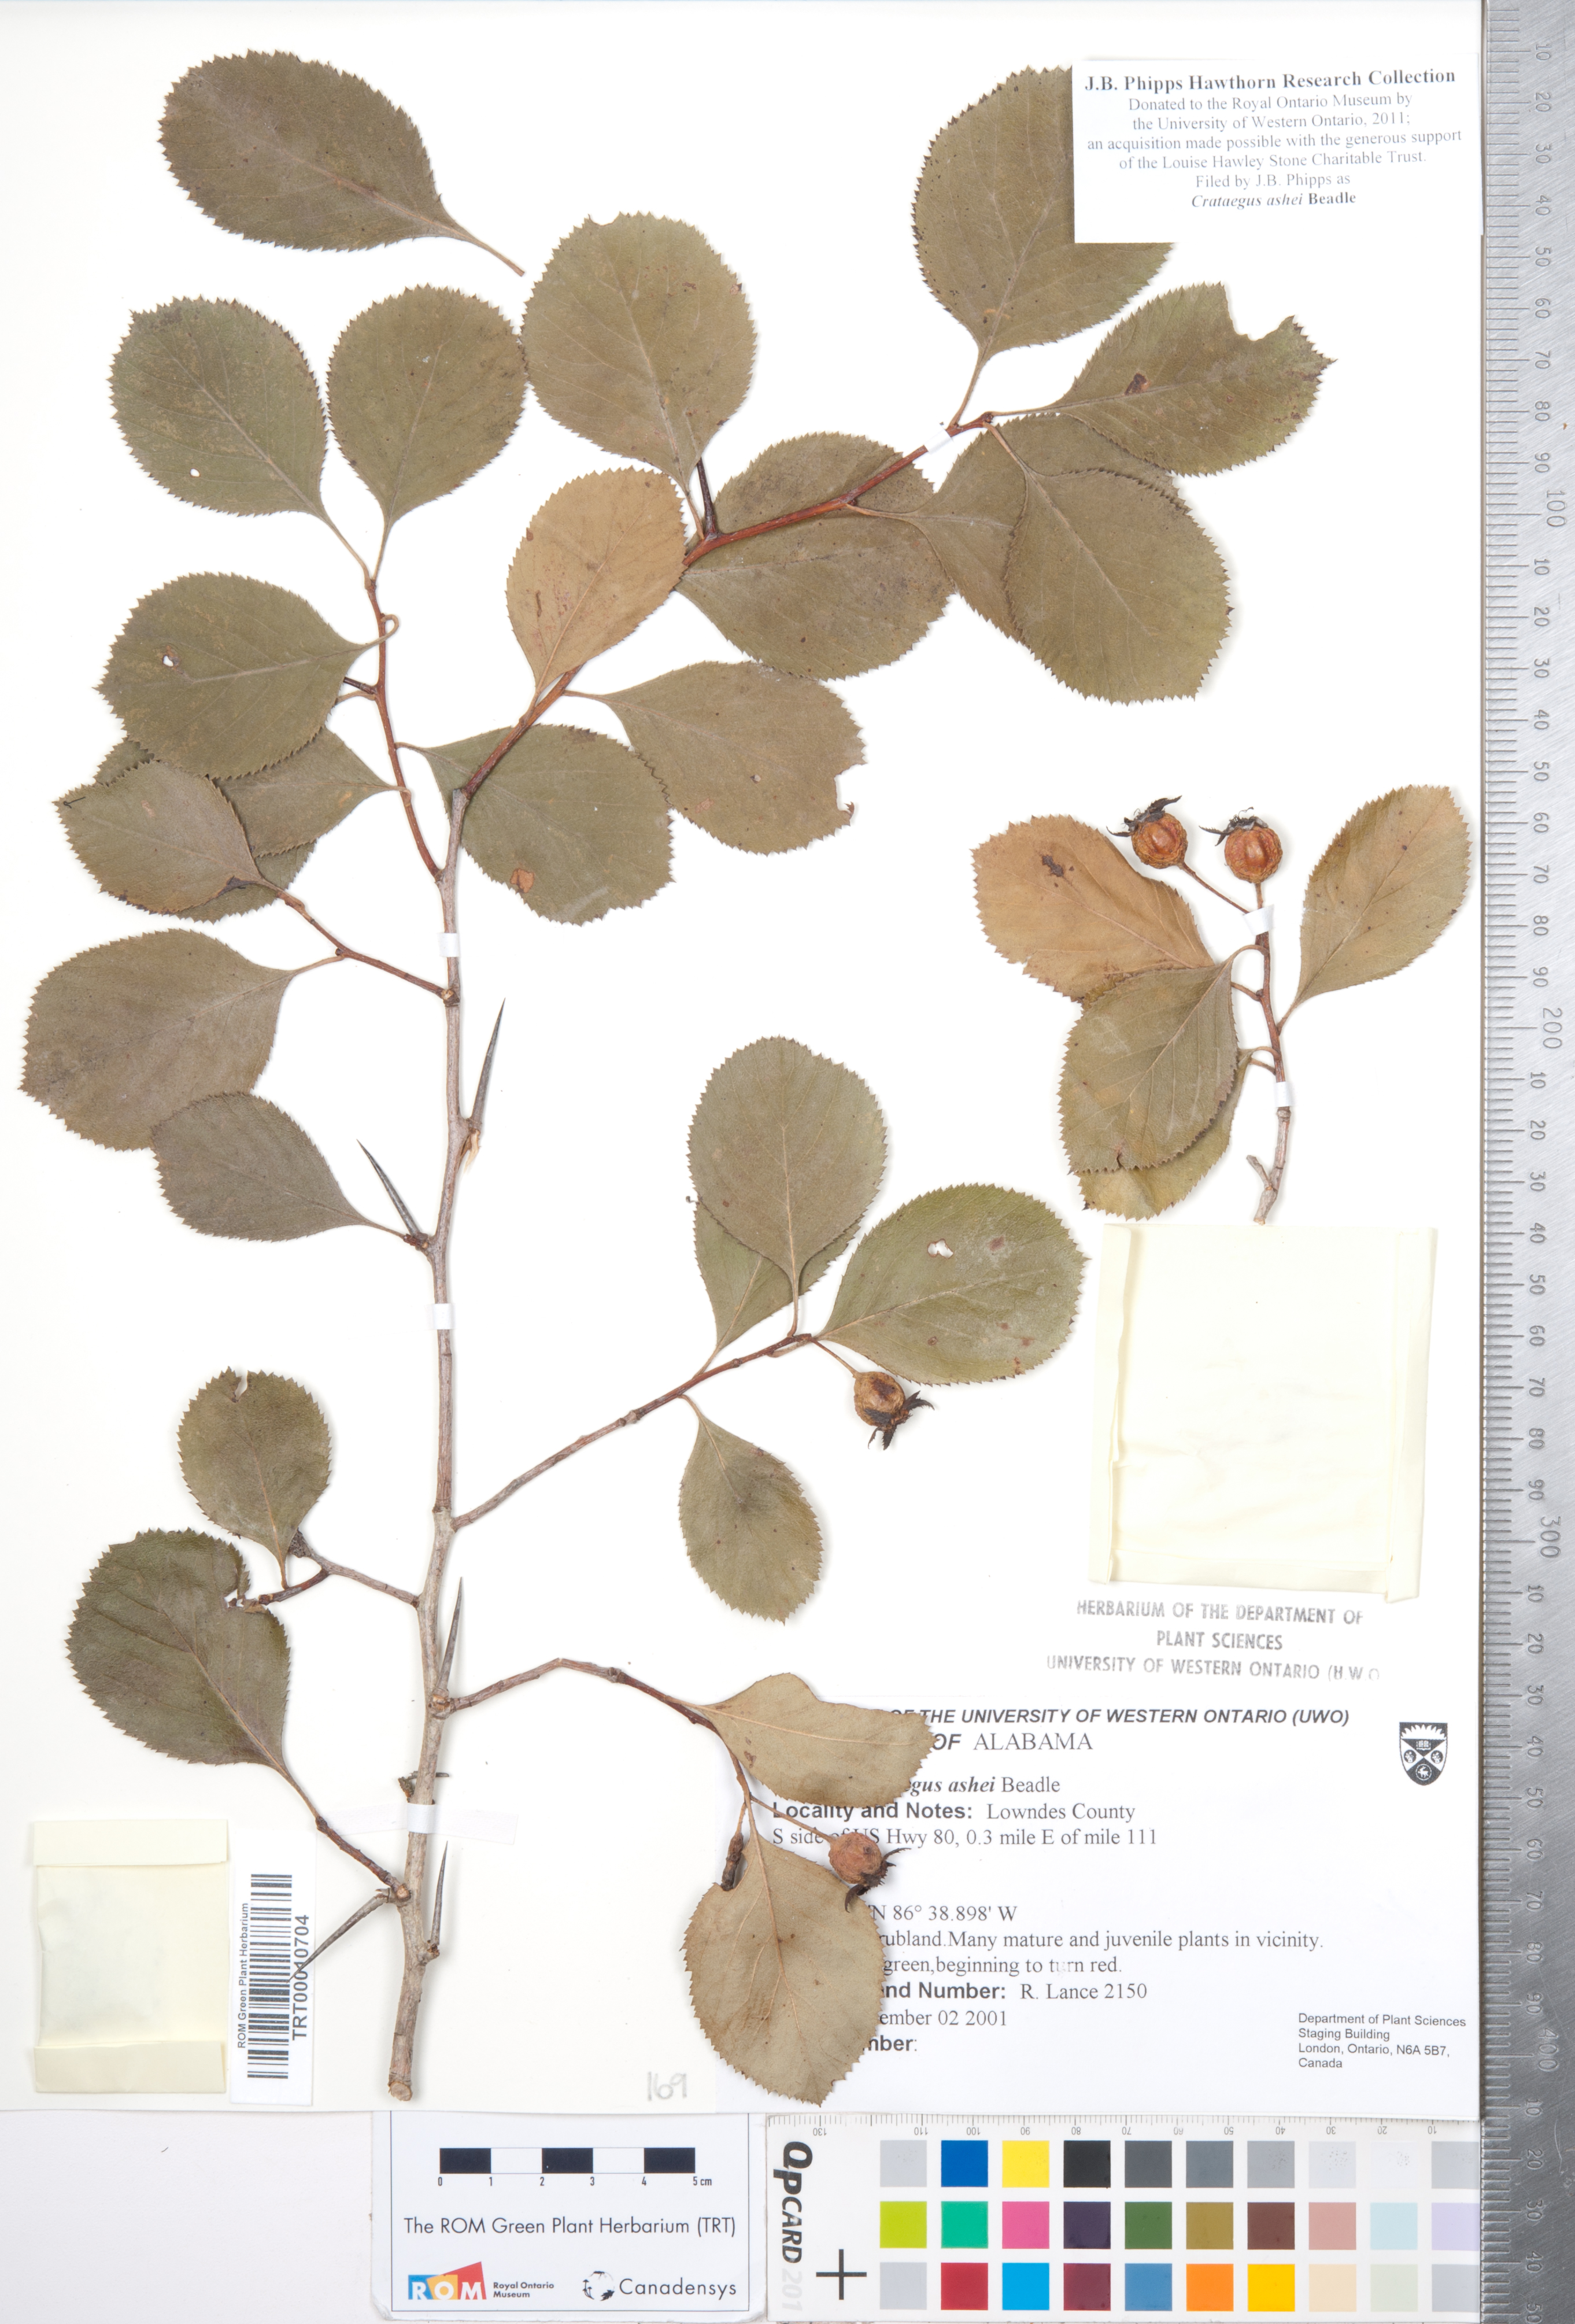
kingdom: Plantae
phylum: Tracheophyta
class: Magnoliopsida
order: Rosales
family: Rosaceae
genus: Crataegus
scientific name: Crataegus ashei
